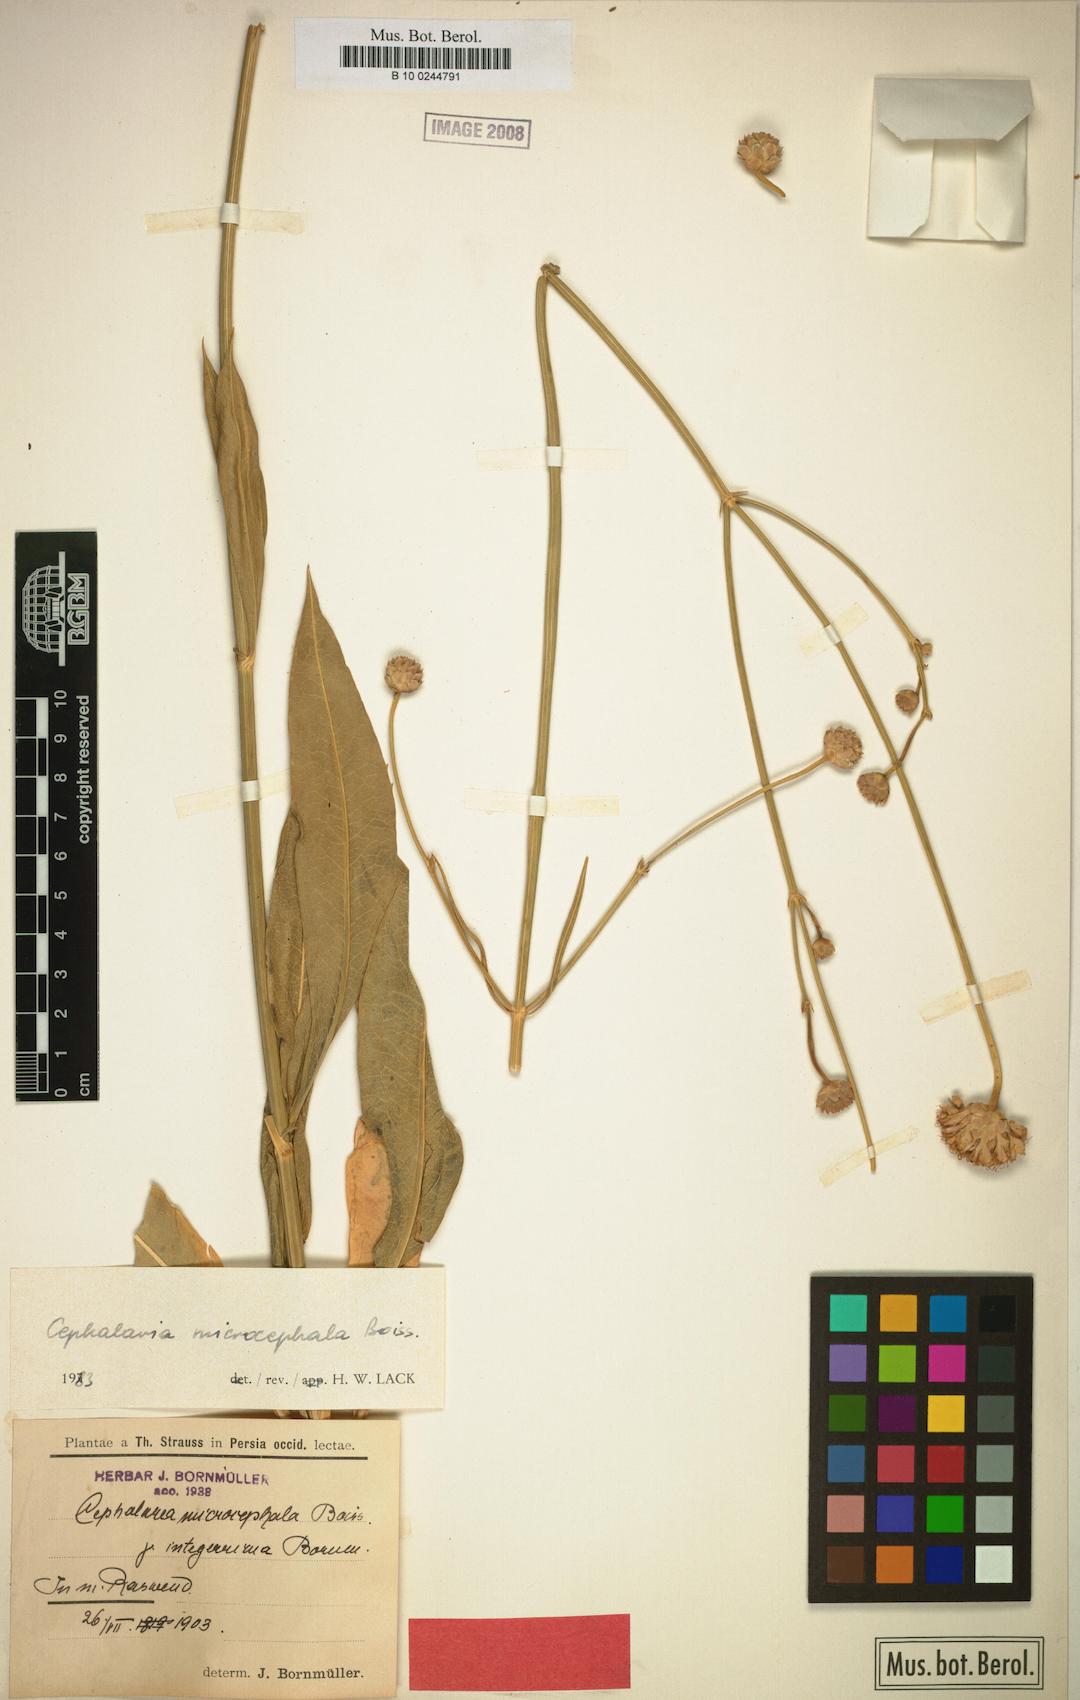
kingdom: Plantae
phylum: Tracheophyta
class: Magnoliopsida
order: Dipsacales
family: Caprifoliaceae
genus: Cephalaria
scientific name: Cephalaria microcephala
